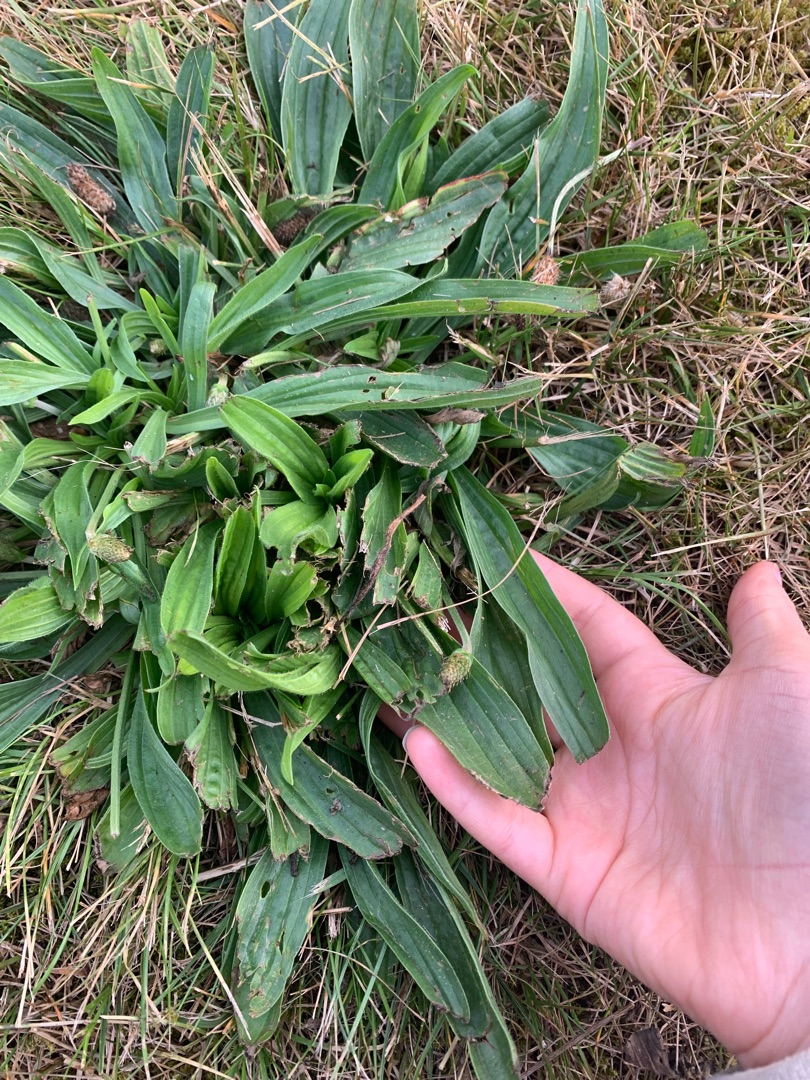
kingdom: Plantae
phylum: Tracheophyta
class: Magnoliopsida
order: Lamiales
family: Plantaginaceae
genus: Plantago
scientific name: Plantago lanceolata
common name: Lancet-vejbred
